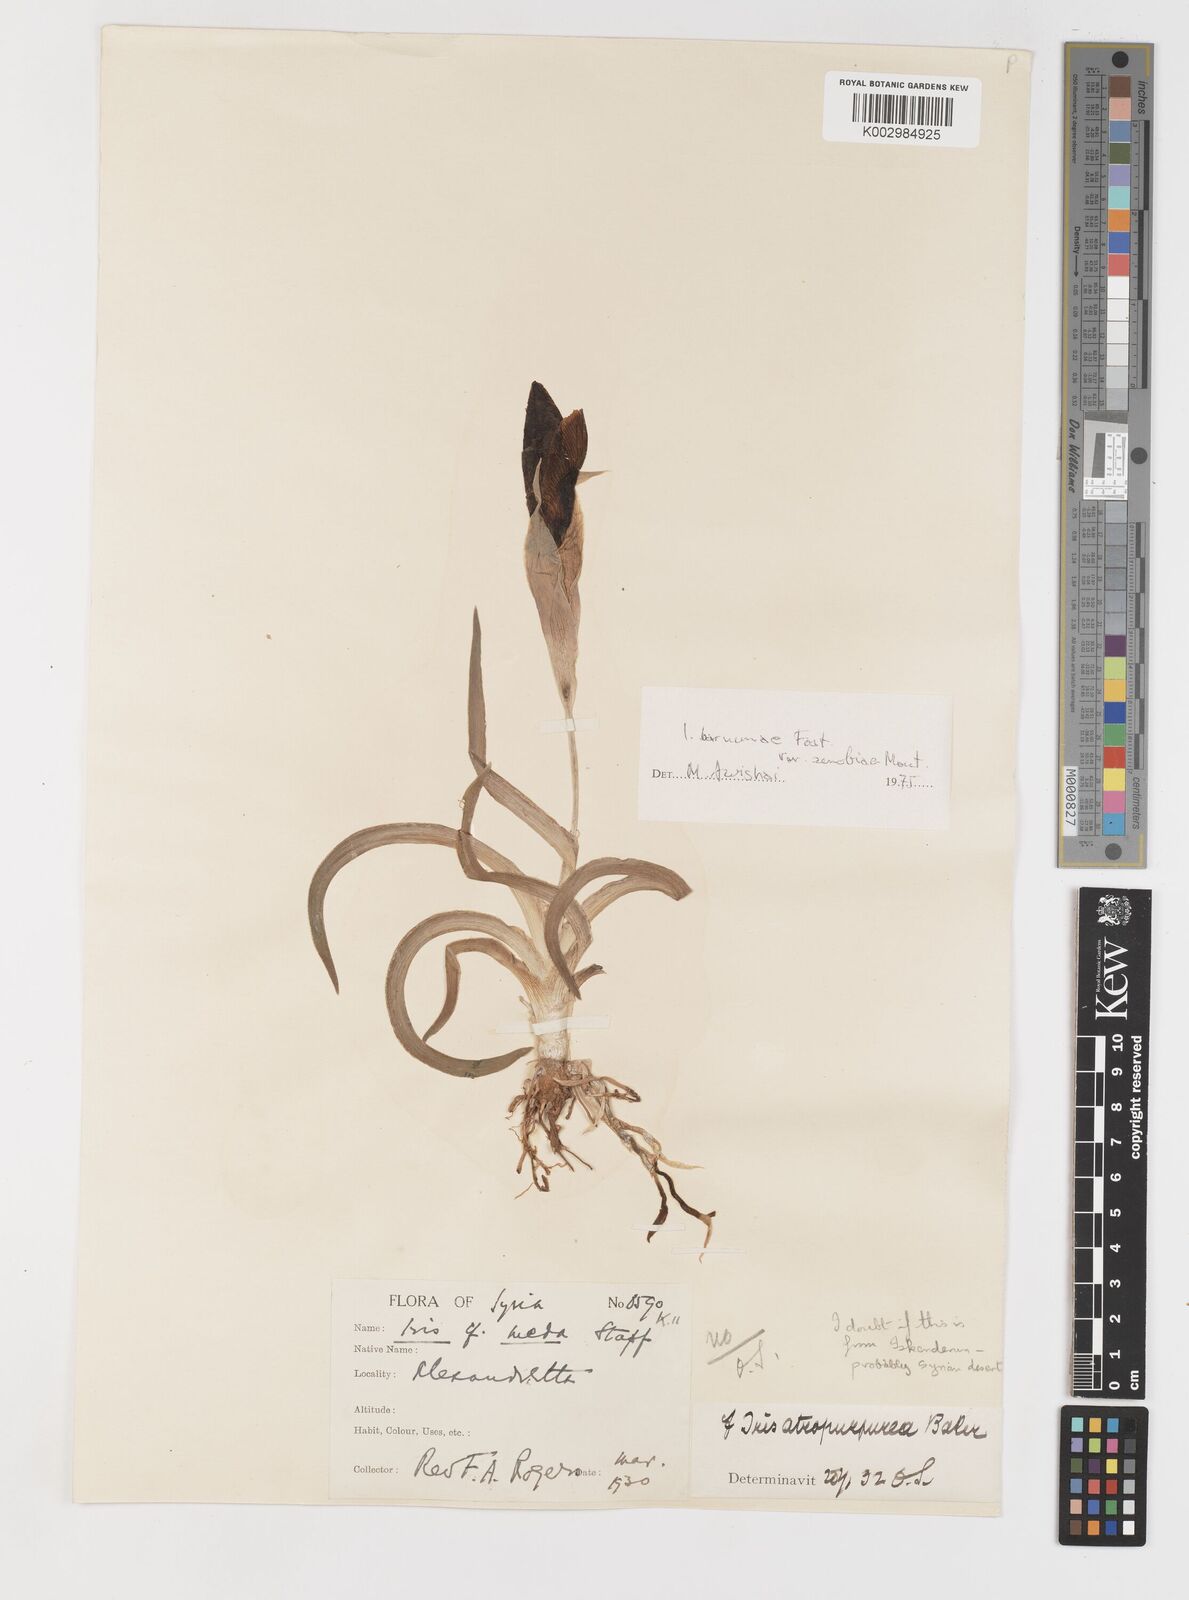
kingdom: Plantae
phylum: Tracheophyta
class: Liliopsida
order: Asparagales
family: Iridaceae
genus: Iris
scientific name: Iris
